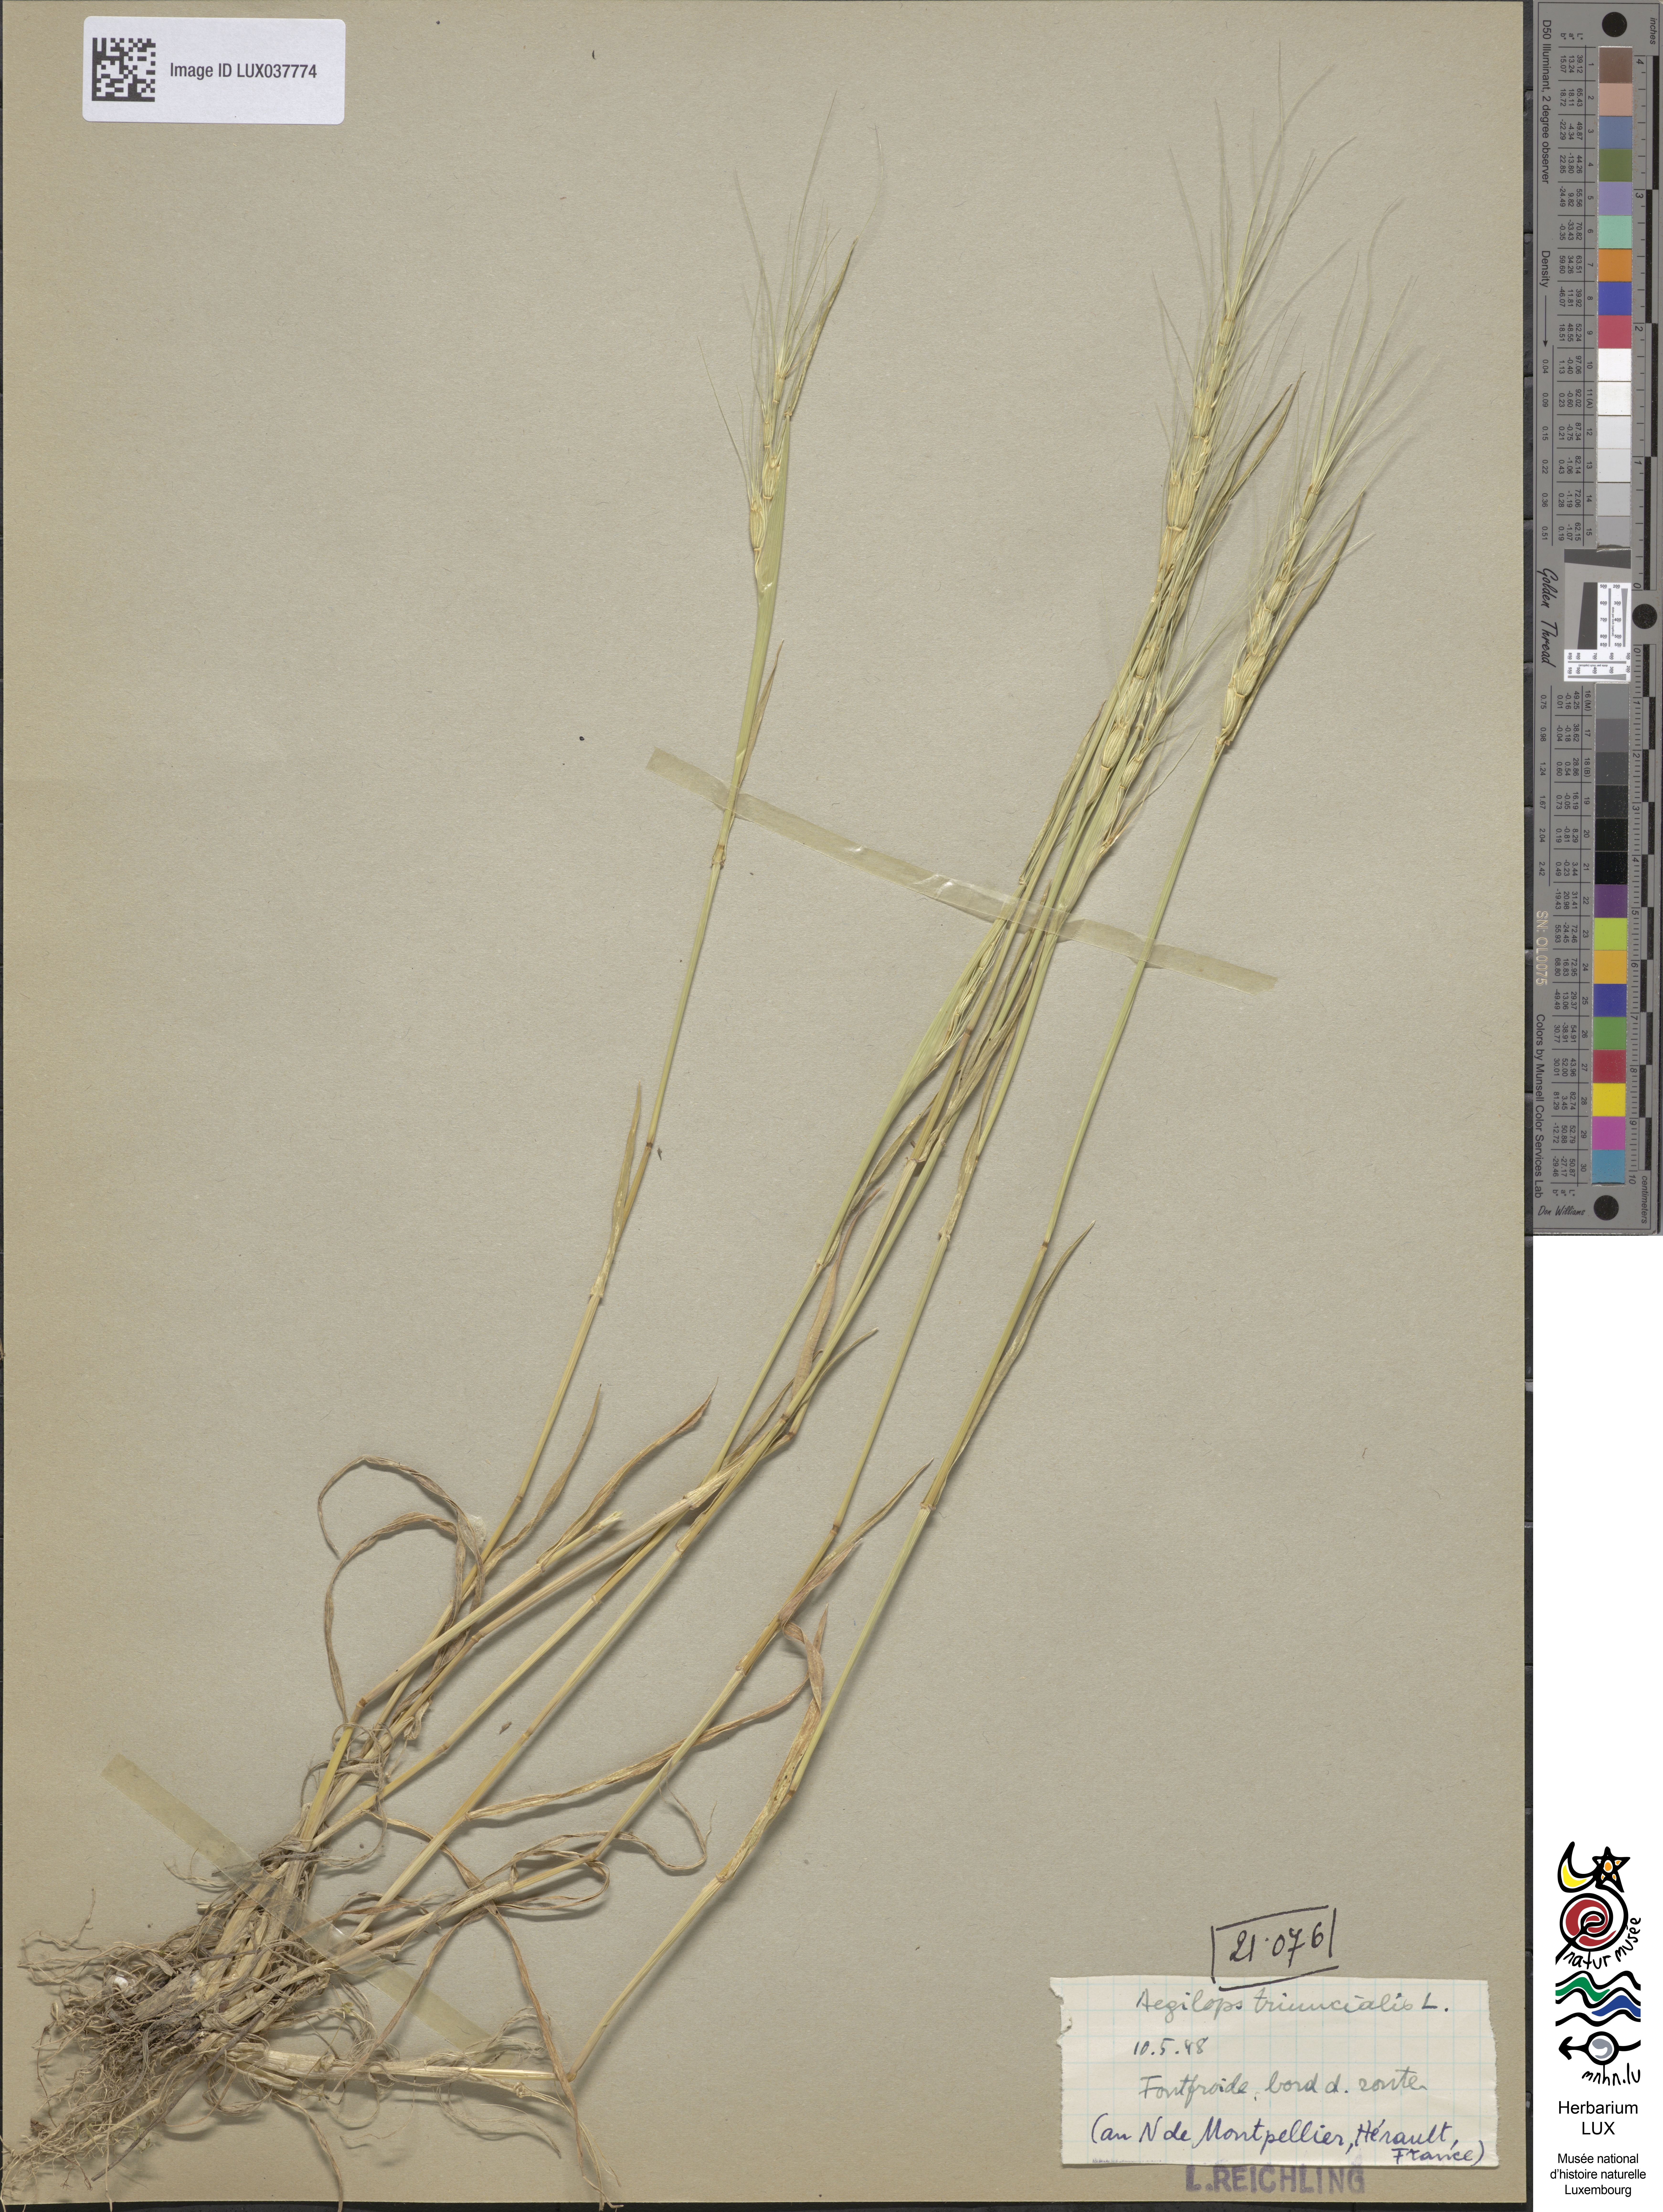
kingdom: Plantae
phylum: Tracheophyta
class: Liliopsida
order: Poales
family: Poaceae
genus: Aegilops
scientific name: Aegilops triuncialis
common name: Barb goat grass
